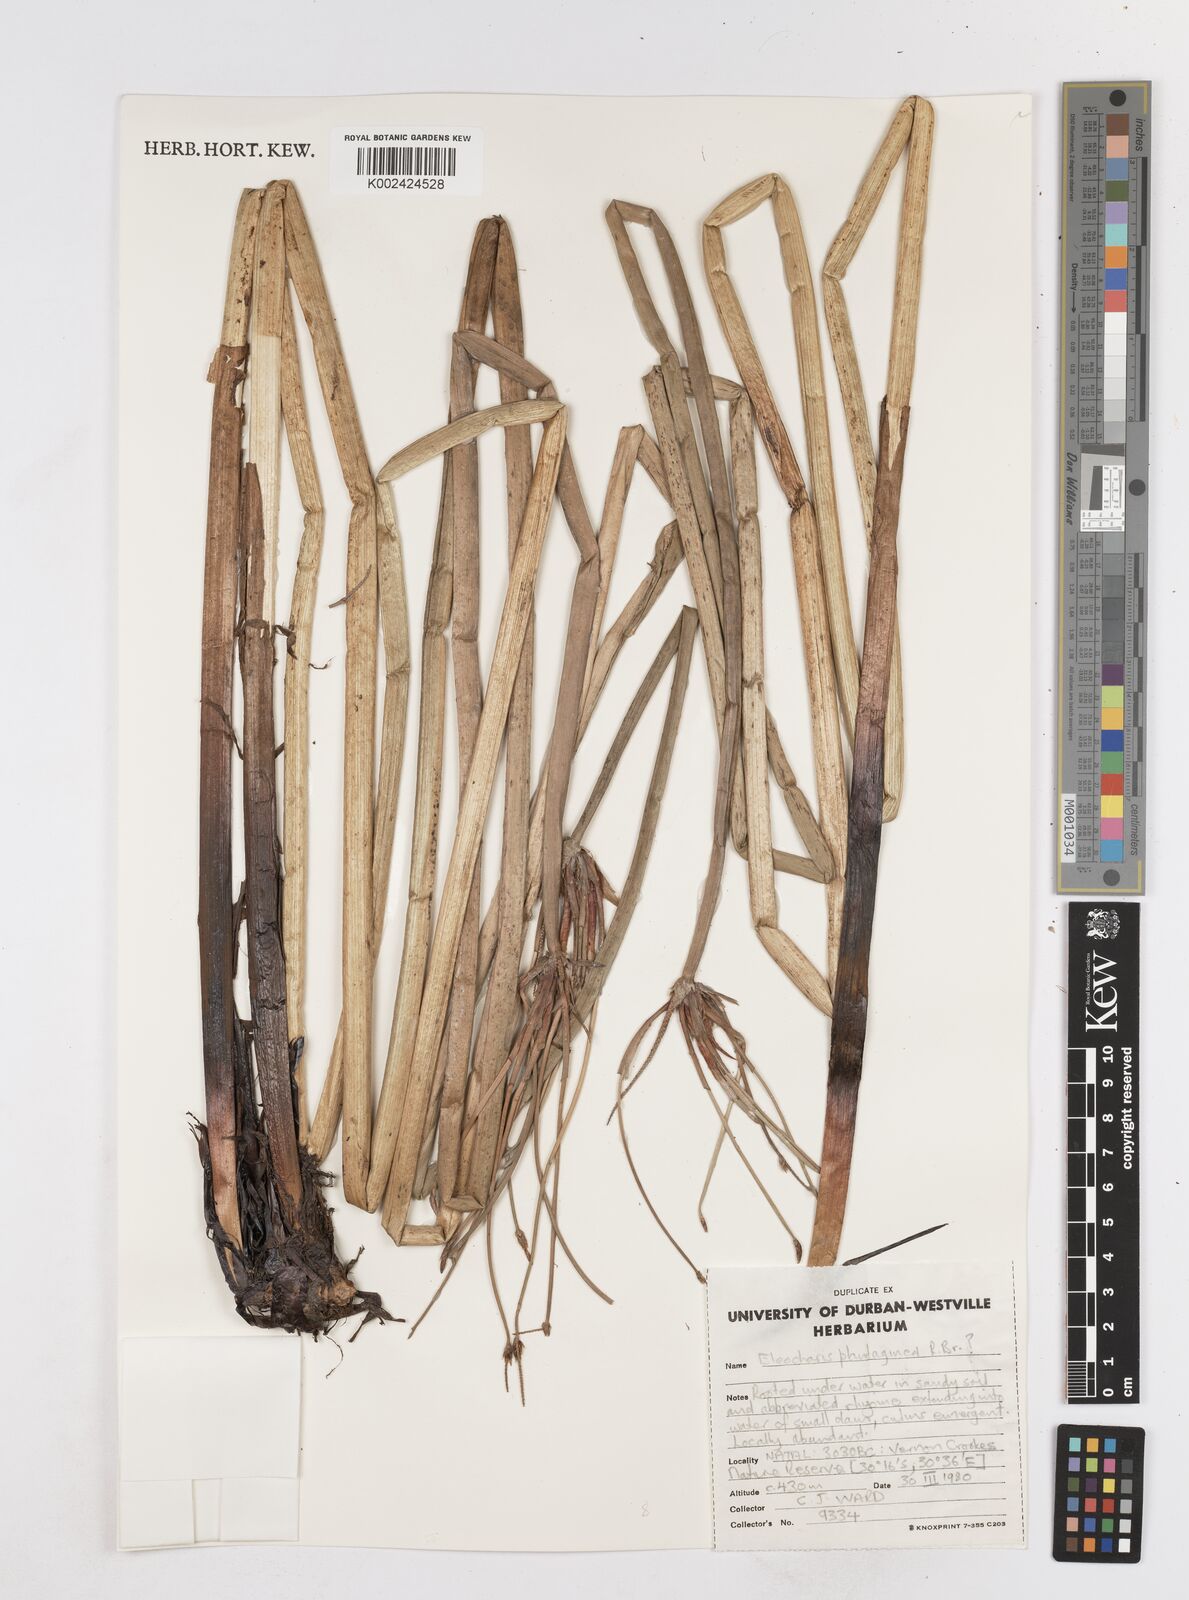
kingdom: Plantae
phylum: Tracheophyta
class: Liliopsida
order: Poales
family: Cyperaceae
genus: Eleocharis
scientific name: Eleocharis dulcis
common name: Chinese water chestnut
